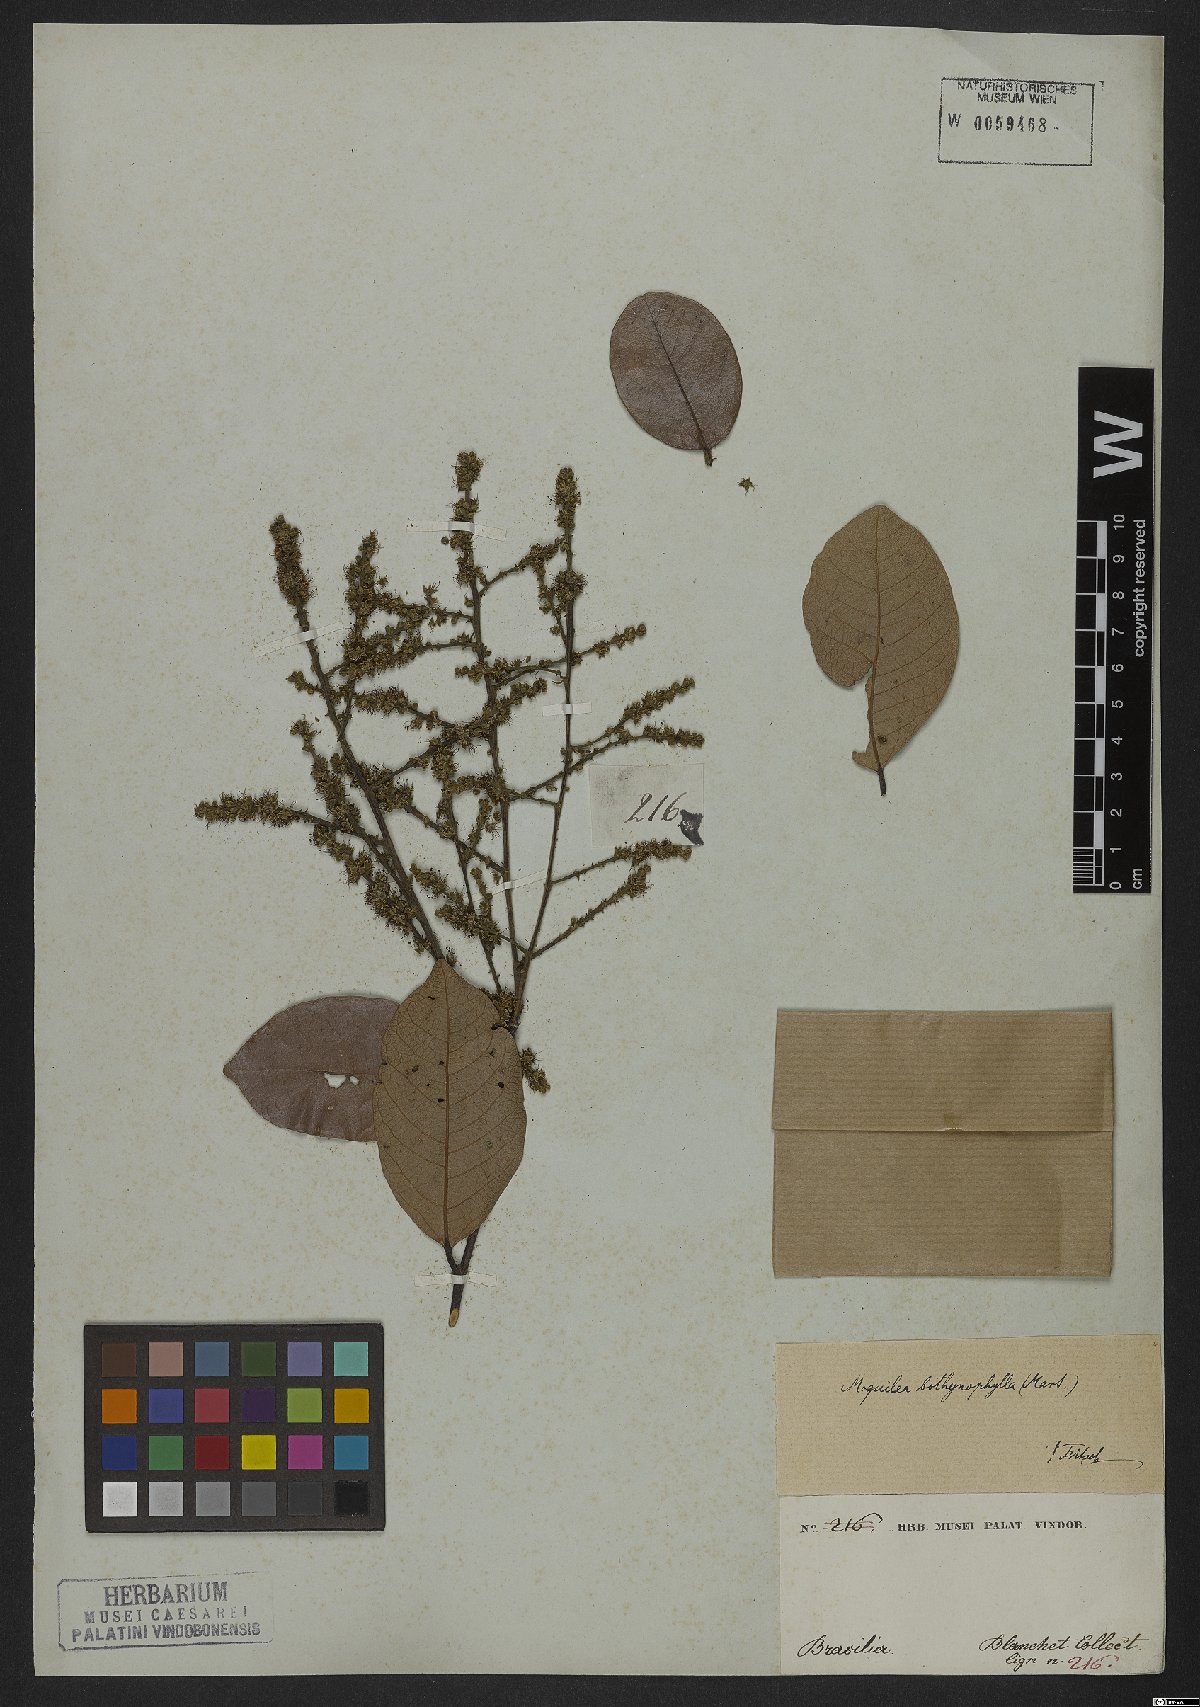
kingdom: Plantae
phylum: Tracheophyta
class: Magnoliopsida
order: Malpighiales
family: Chrysobalanaceae
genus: Leptobalanus
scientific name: Leptobalanus octandrus
